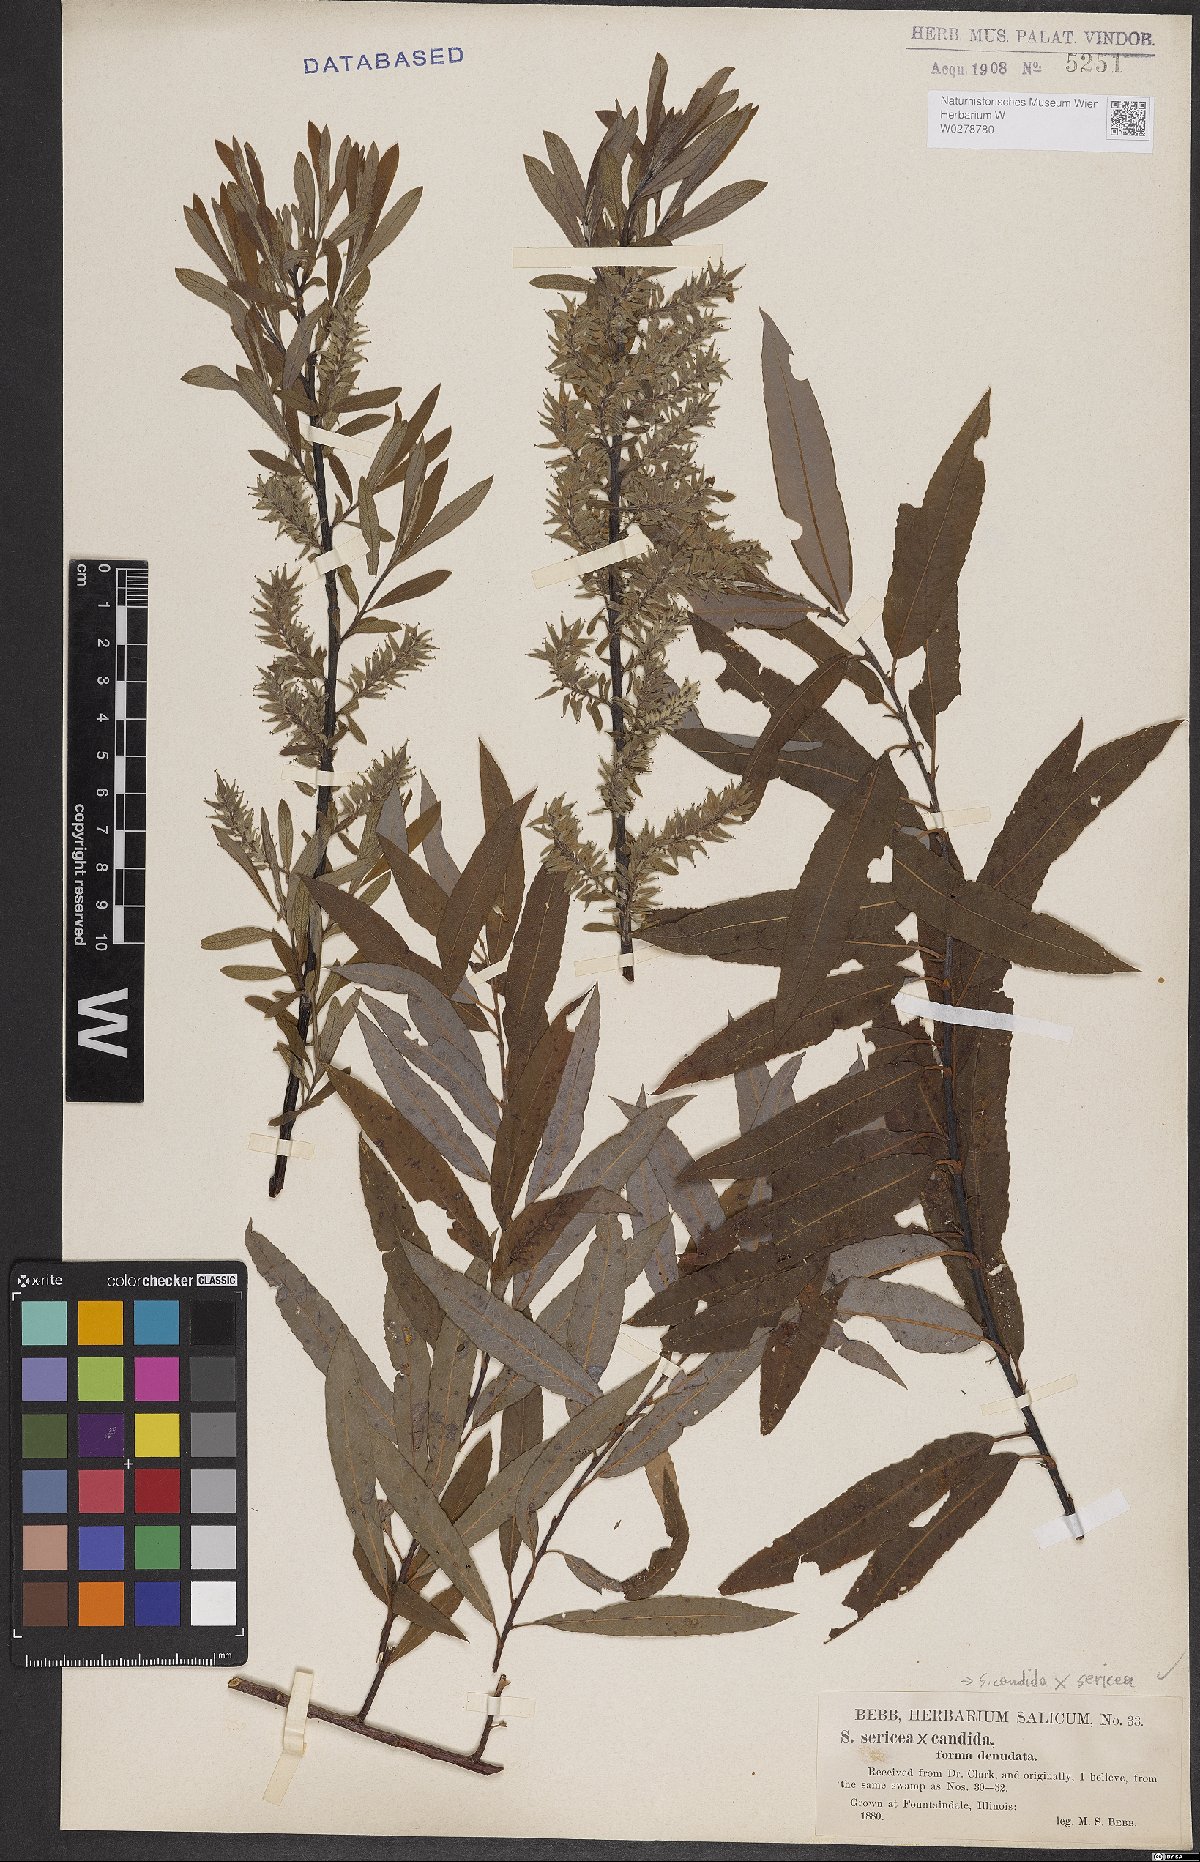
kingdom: Plantae
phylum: Tracheophyta
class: Magnoliopsida
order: Malpighiales
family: Salicaceae
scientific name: Salicaceae
